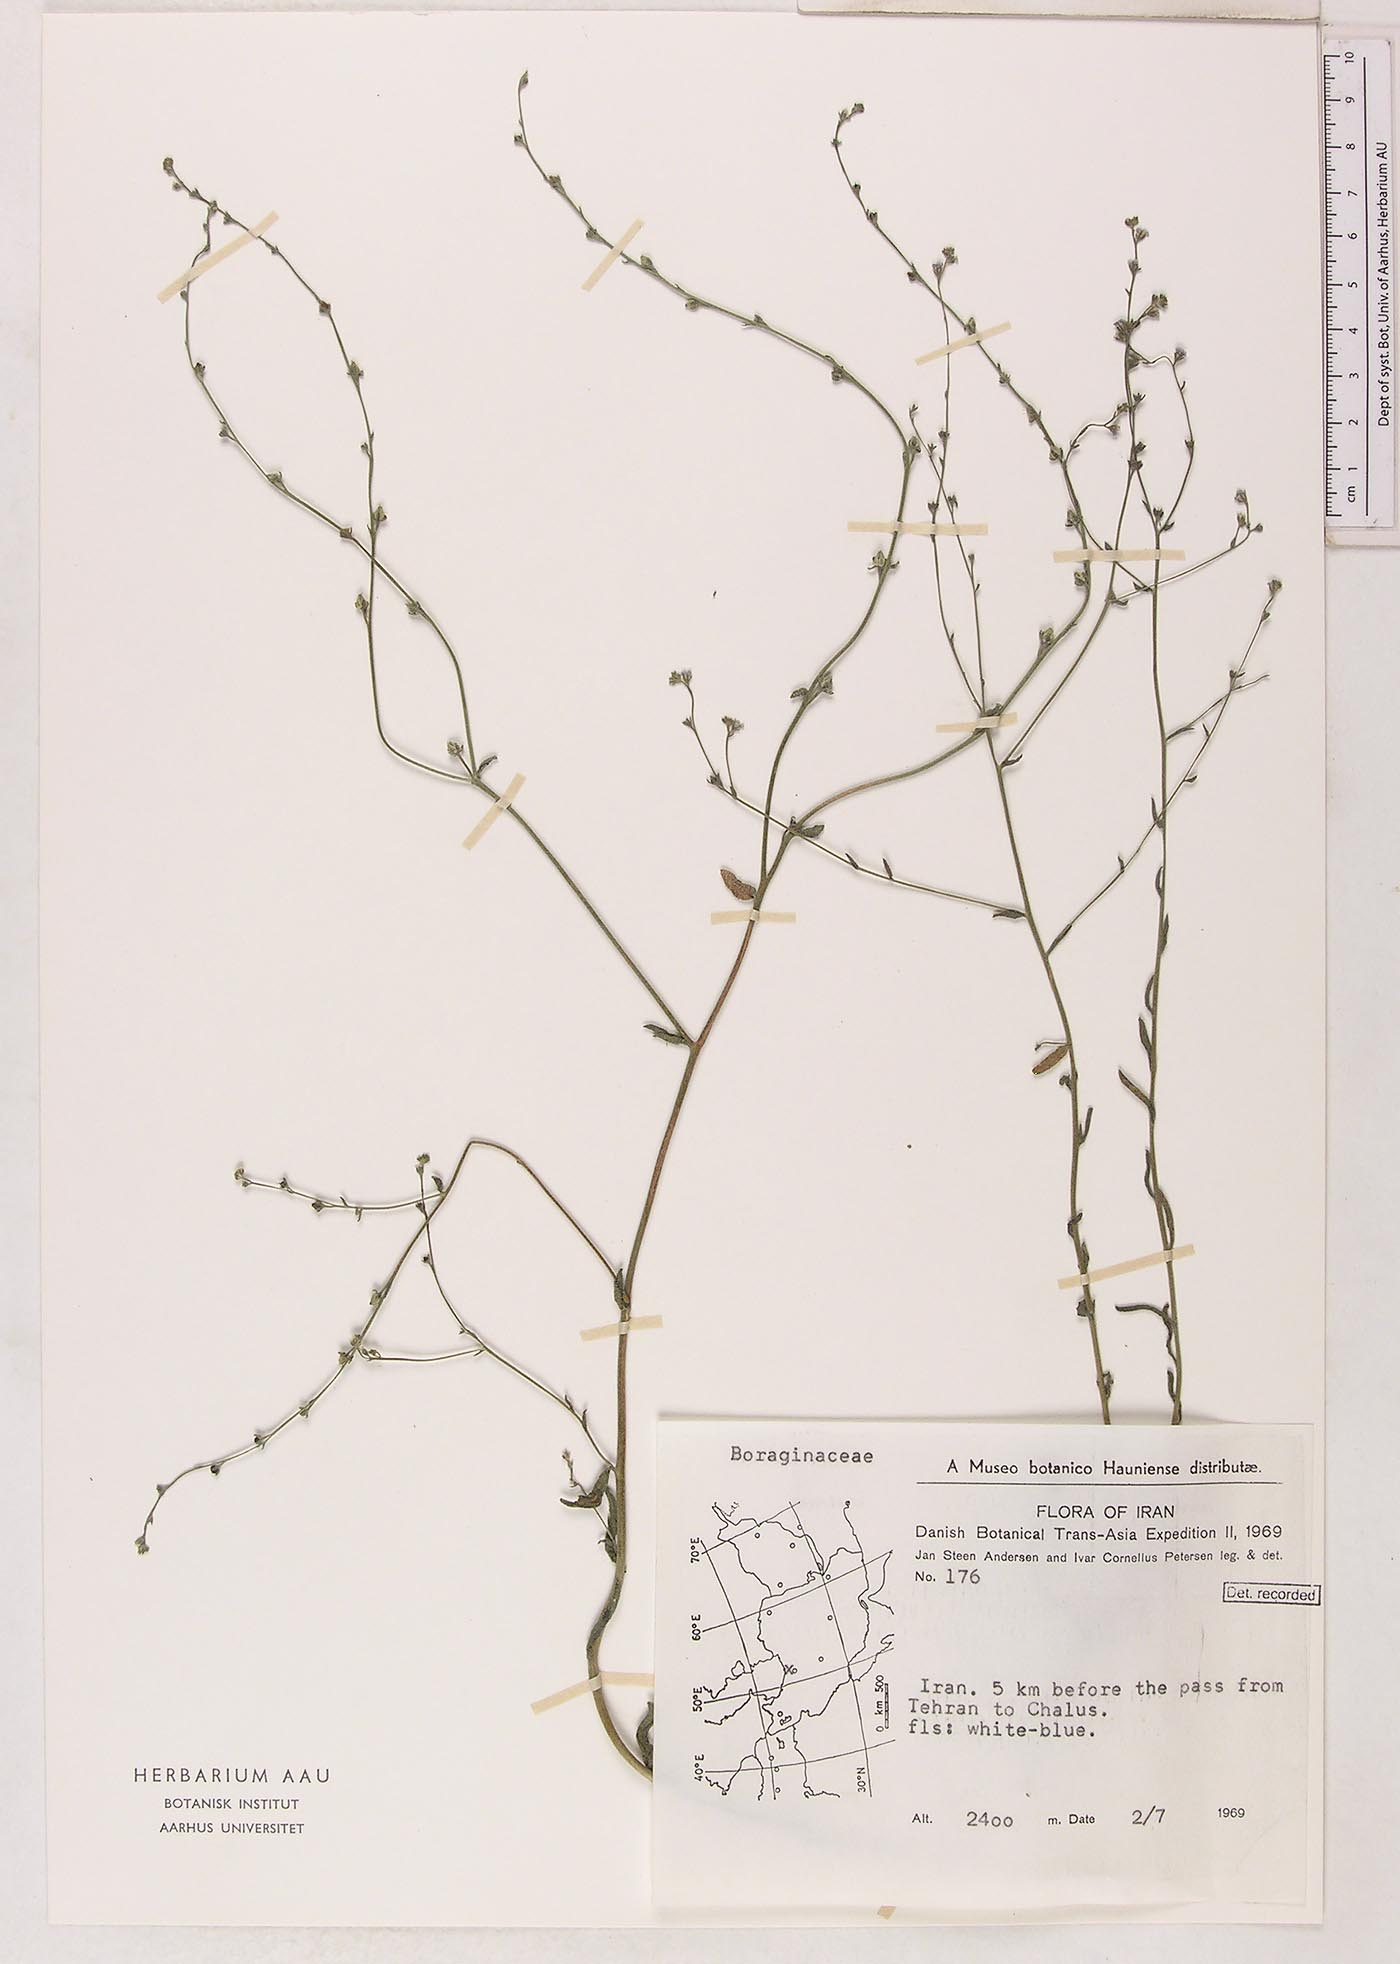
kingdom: Plantae
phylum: Tracheophyta
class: Magnoliopsida
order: Boraginales
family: Boraginaceae
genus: Lappula
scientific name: Lappula microcarpa
